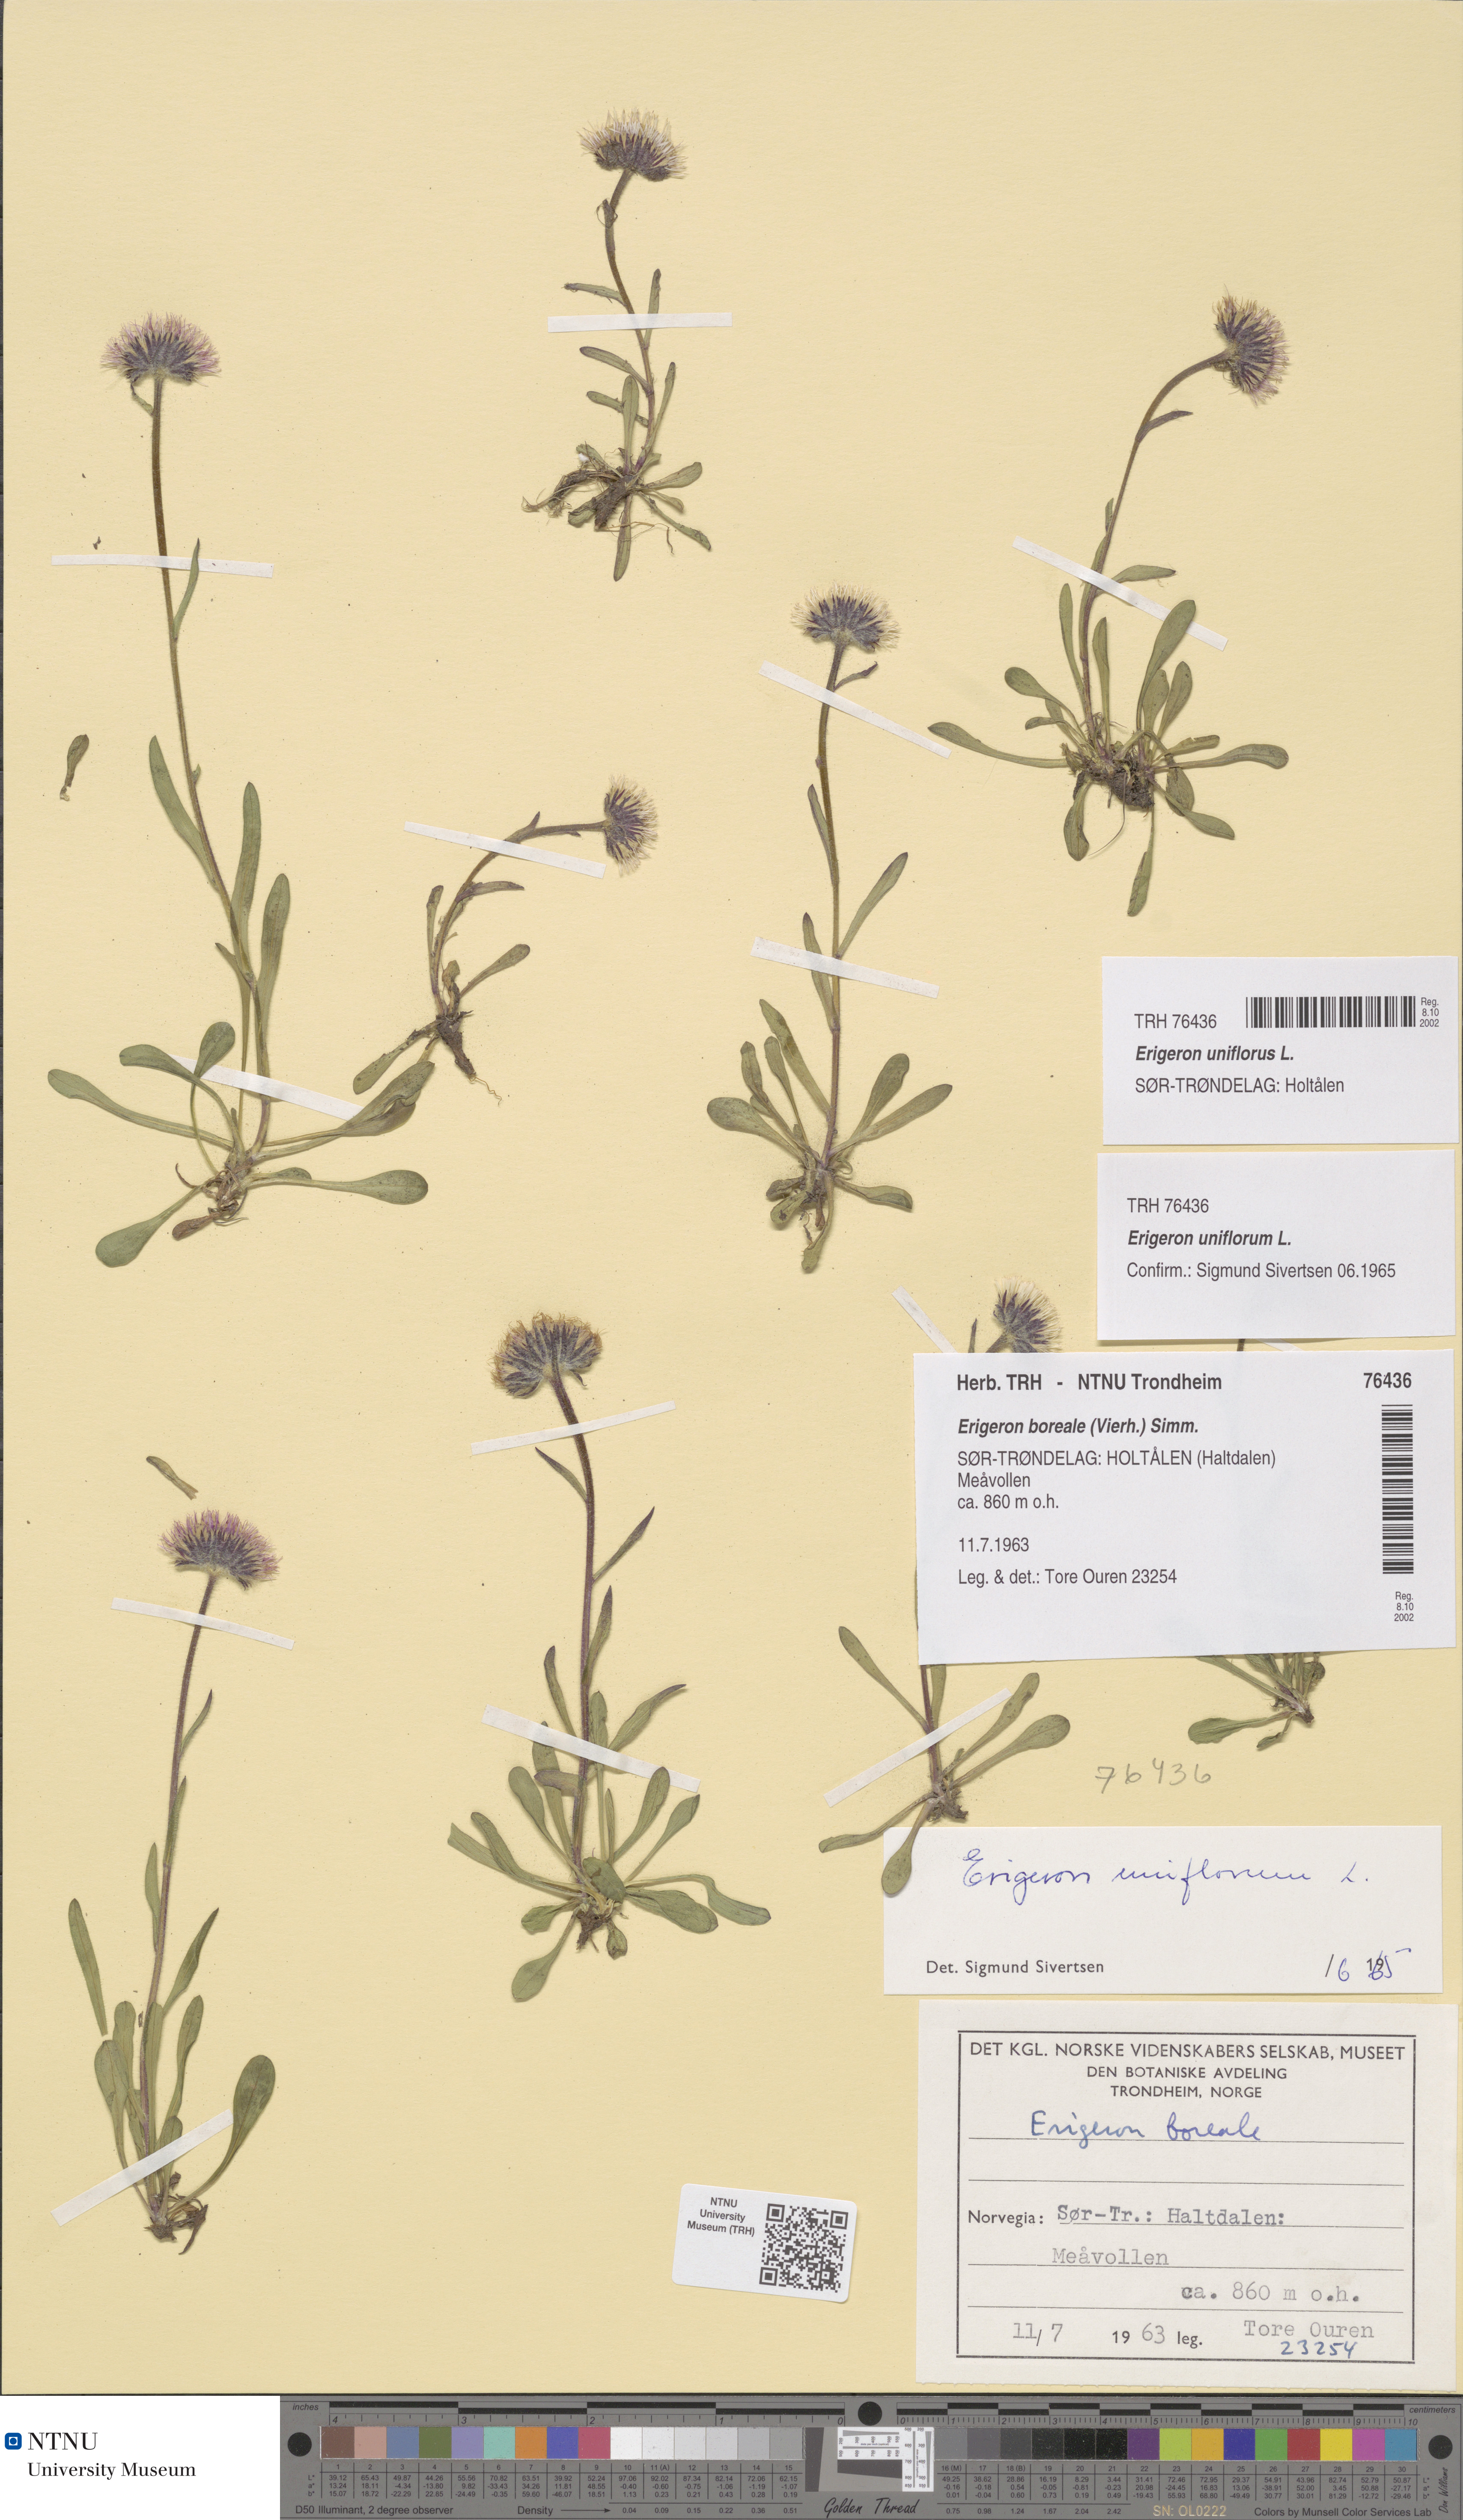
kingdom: Plantae
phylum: Tracheophyta
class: Magnoliopsida
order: Asterales
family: Asteraceae
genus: Erigeron
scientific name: Erigeron uniflorus
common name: Northern daisy
